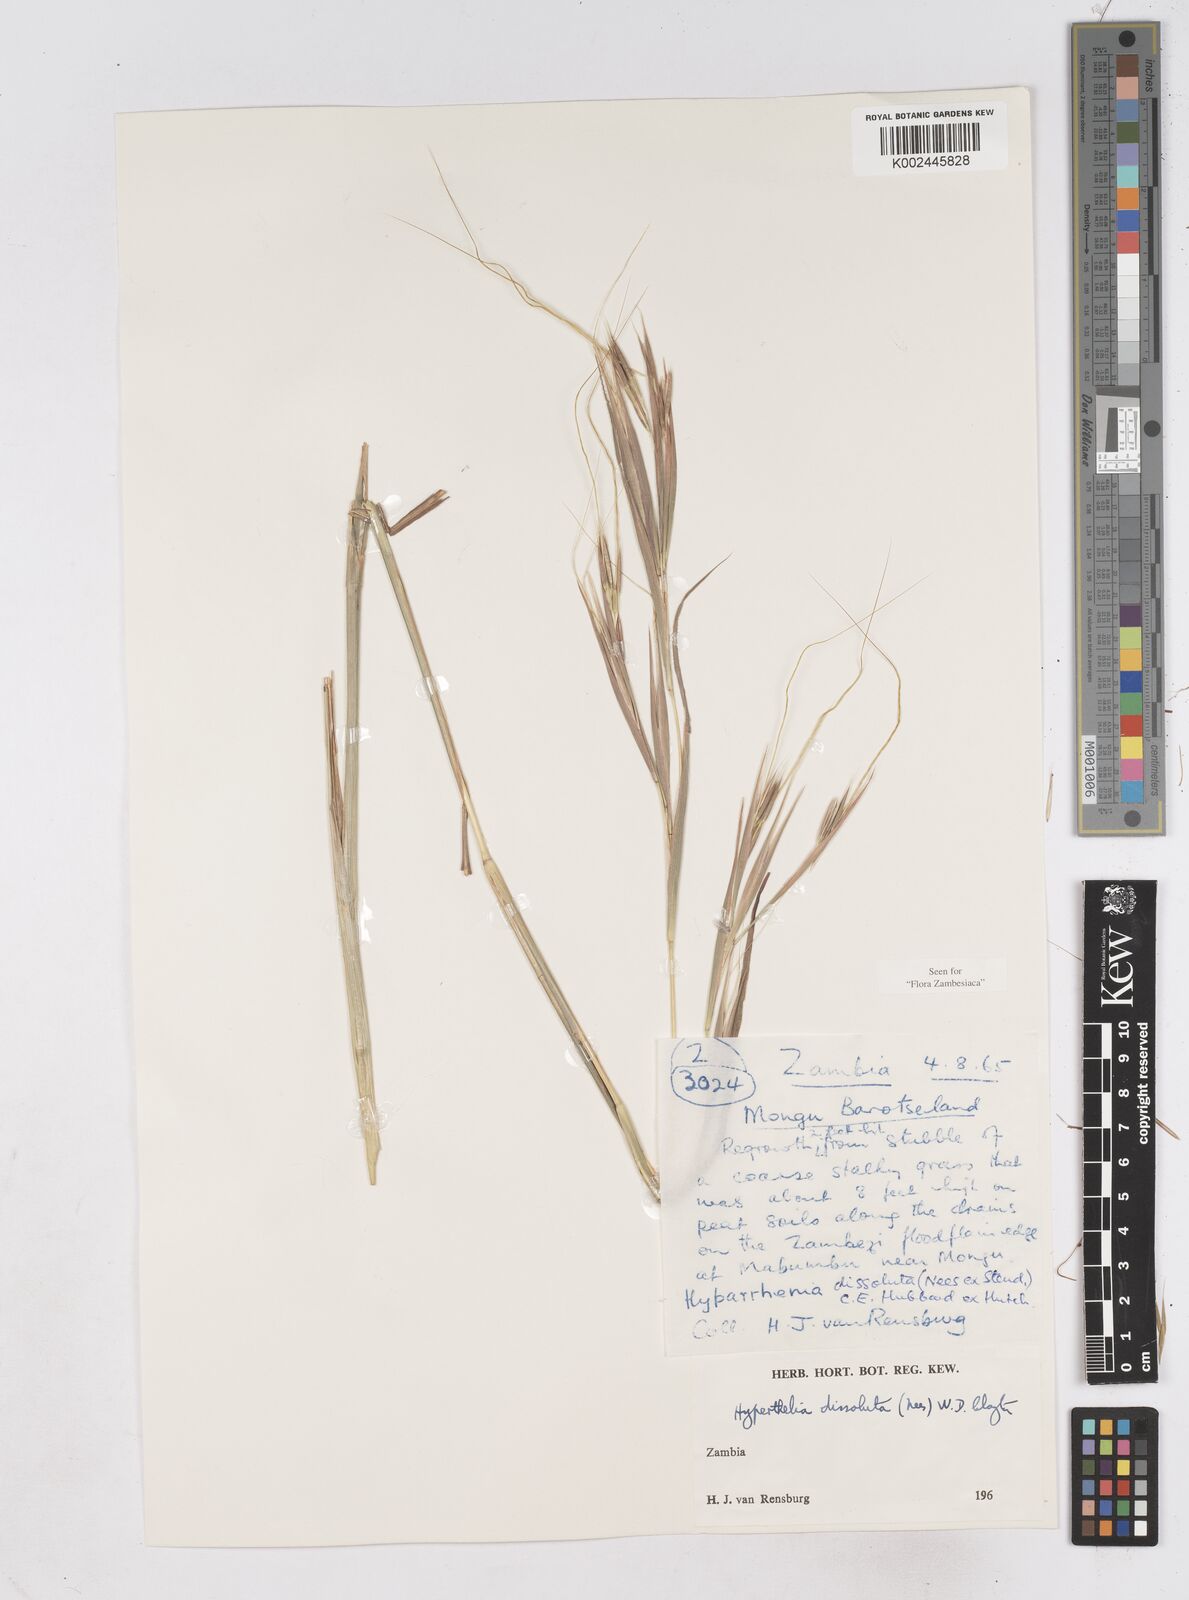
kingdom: Plantae
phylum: Tracheophyta
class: Liliopsida
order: Poales
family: Poaceae
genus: Hyperthelia
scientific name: Hyperthelia dissoluta
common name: Yellow thatching grass
